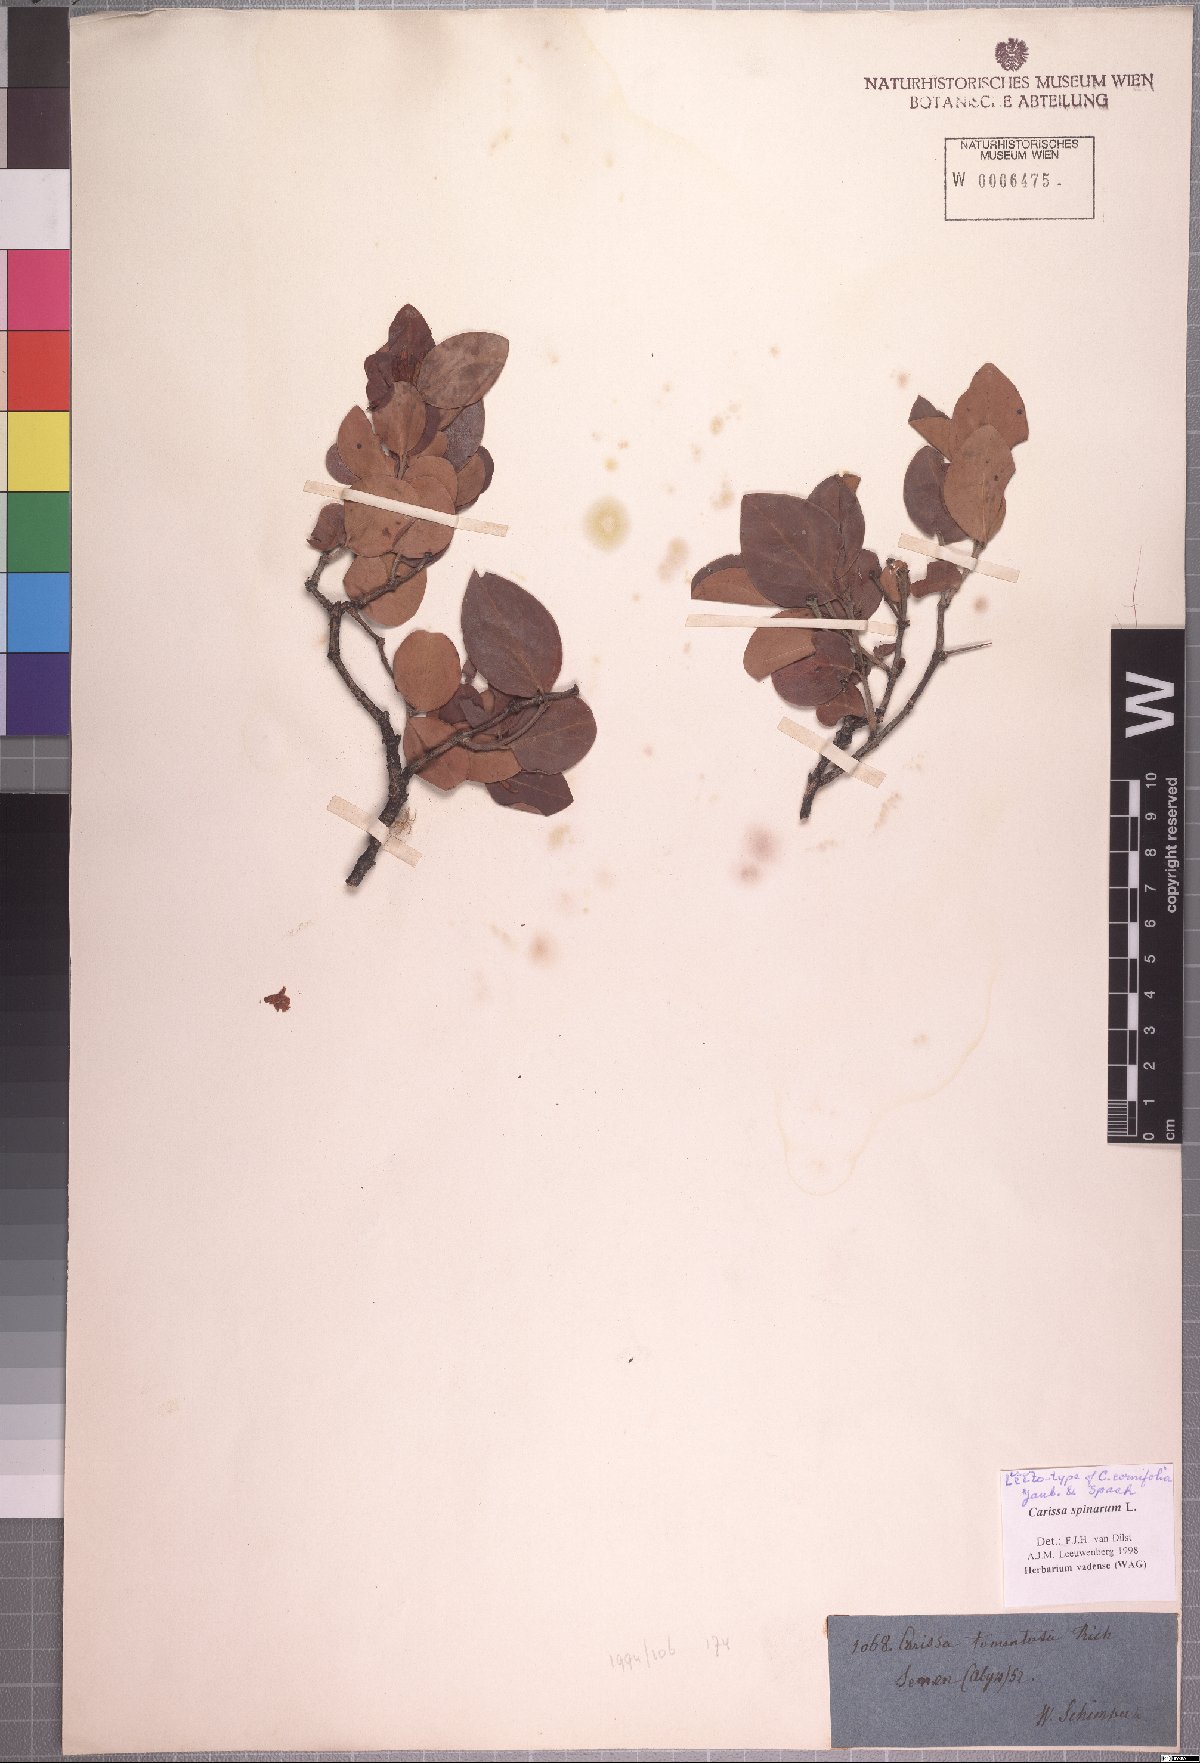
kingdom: Plantae
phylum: Tracheophyta
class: Magnoliopsida
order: Gentianales
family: Apocynaceae
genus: Carissa
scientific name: Carissa spinarum
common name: Egyptian carissa
